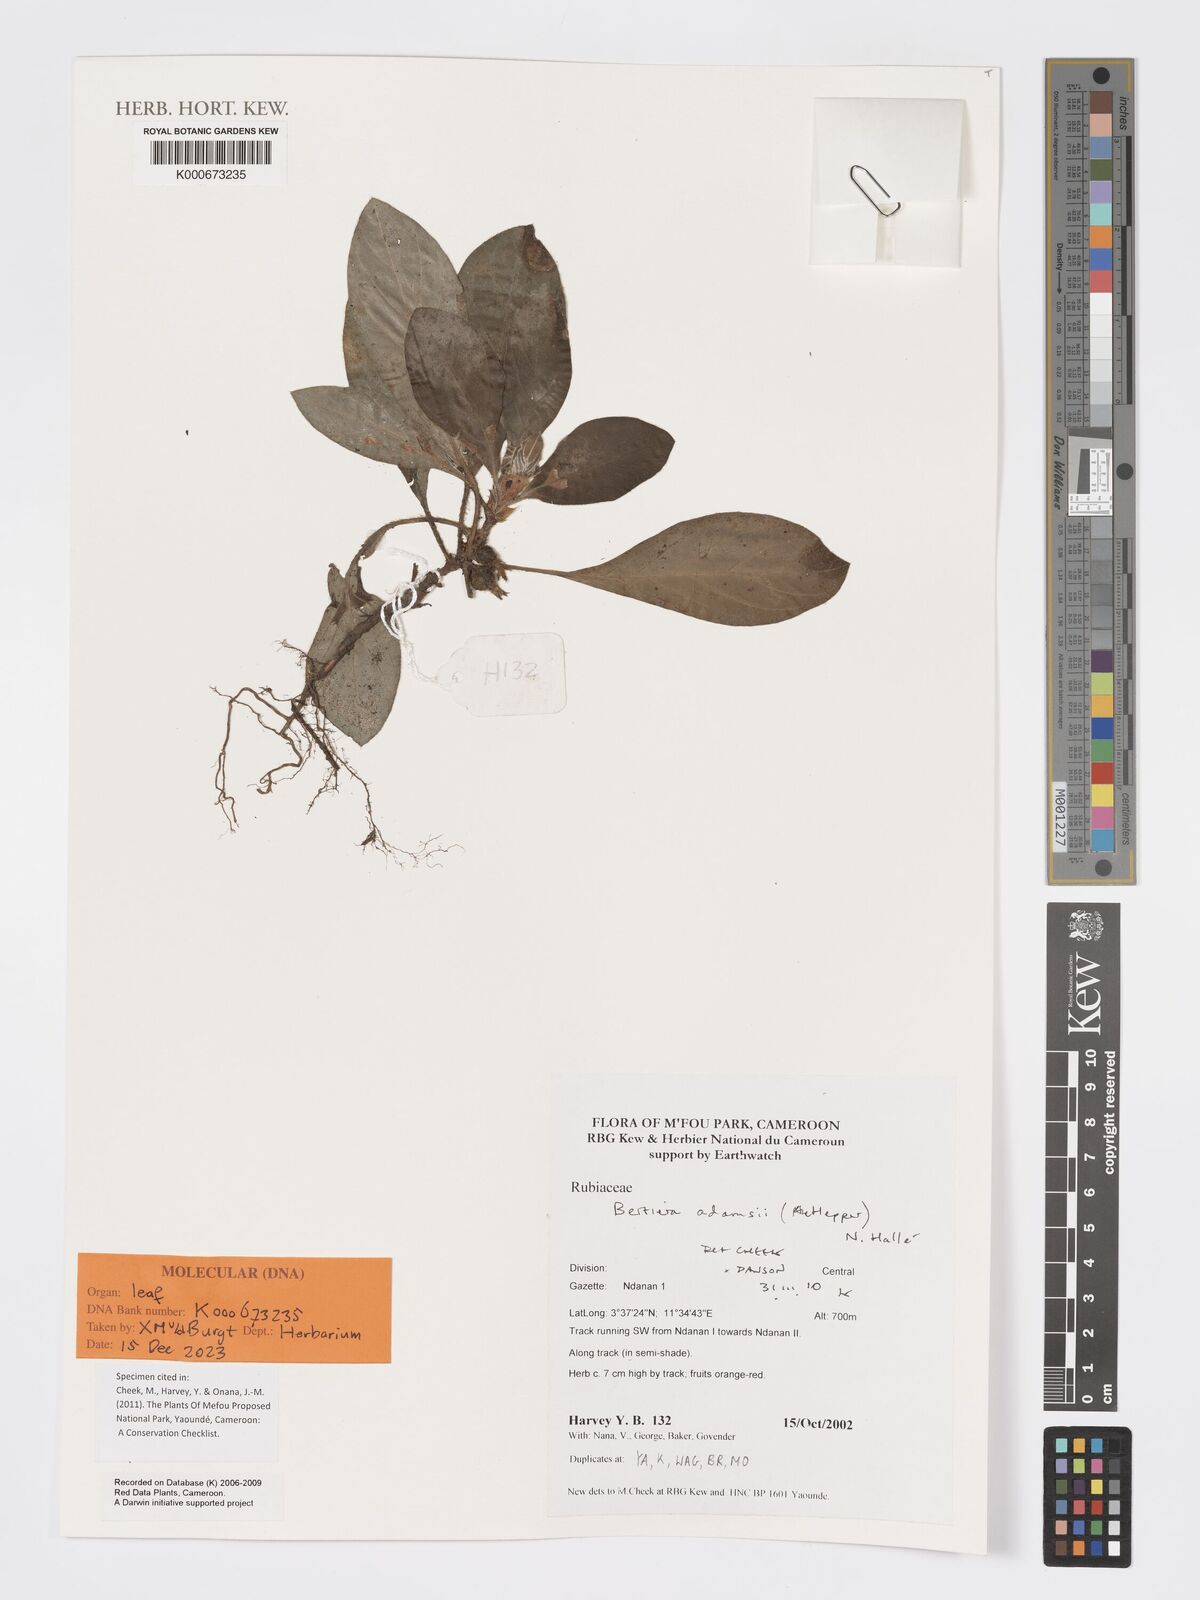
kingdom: Plantae
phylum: Tracheophyta
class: Magnoliopsida
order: Gentianales
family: Rubiaceae
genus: Bertiera
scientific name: Bertiera
